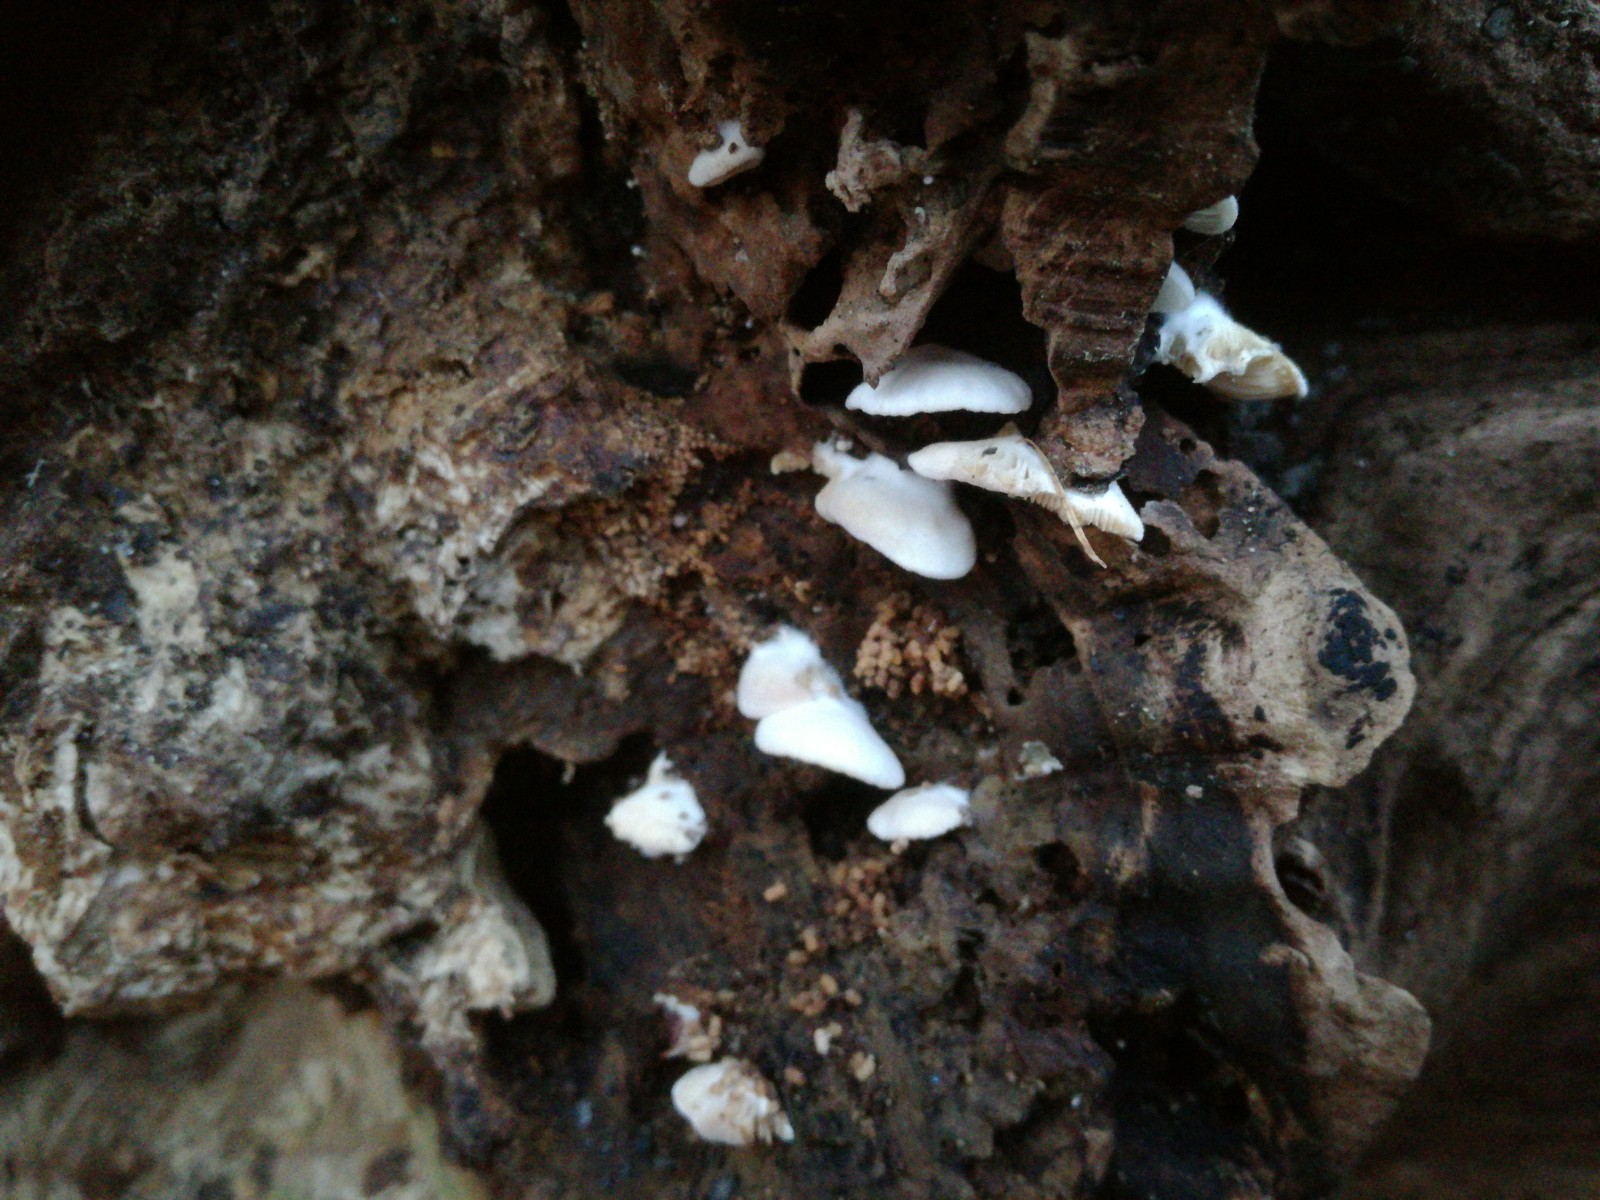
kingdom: Fungi
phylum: Basidiomycota
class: Agaricomycetes
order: Agaricales
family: Entolomataceae
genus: Clitopilus
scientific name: Clitopilus hobsonii
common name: Miller's oysterling
